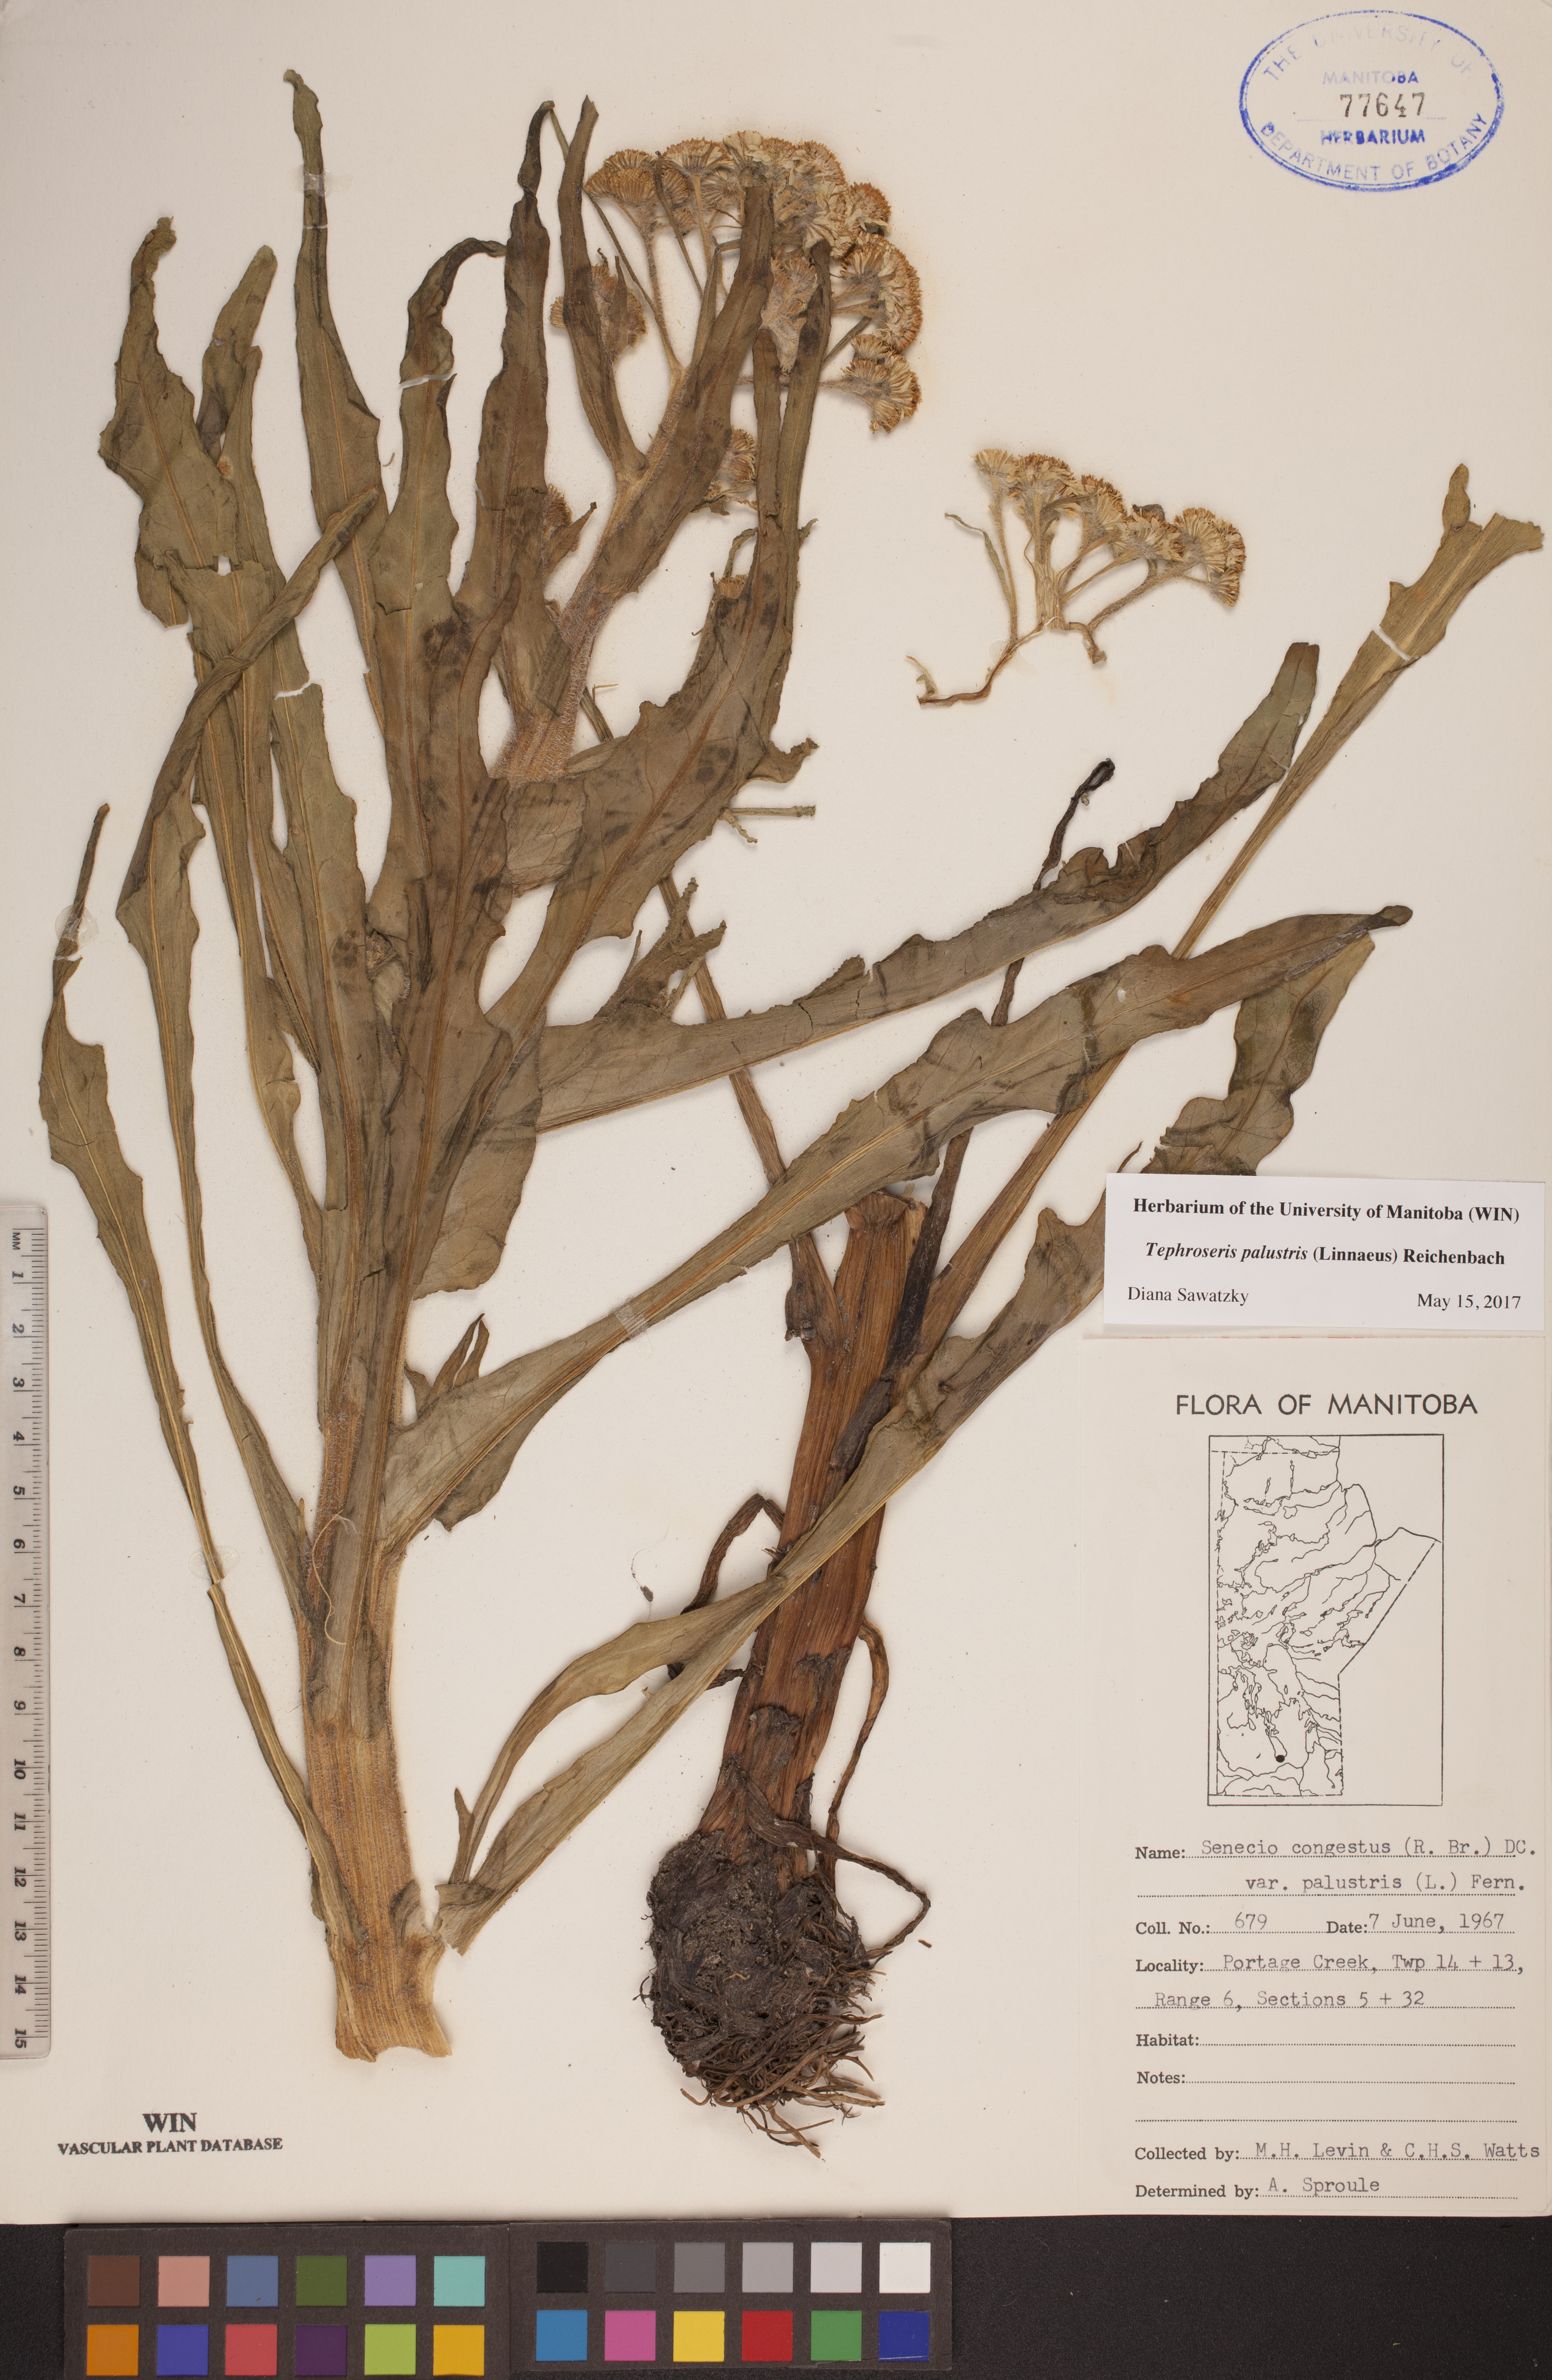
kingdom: Plantae
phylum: Tracheophyta
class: Magnoliopsida
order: Asterales
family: Asteraceae
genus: Tephroseris
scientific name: Tephroseris palustris
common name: Marsh fleawort
